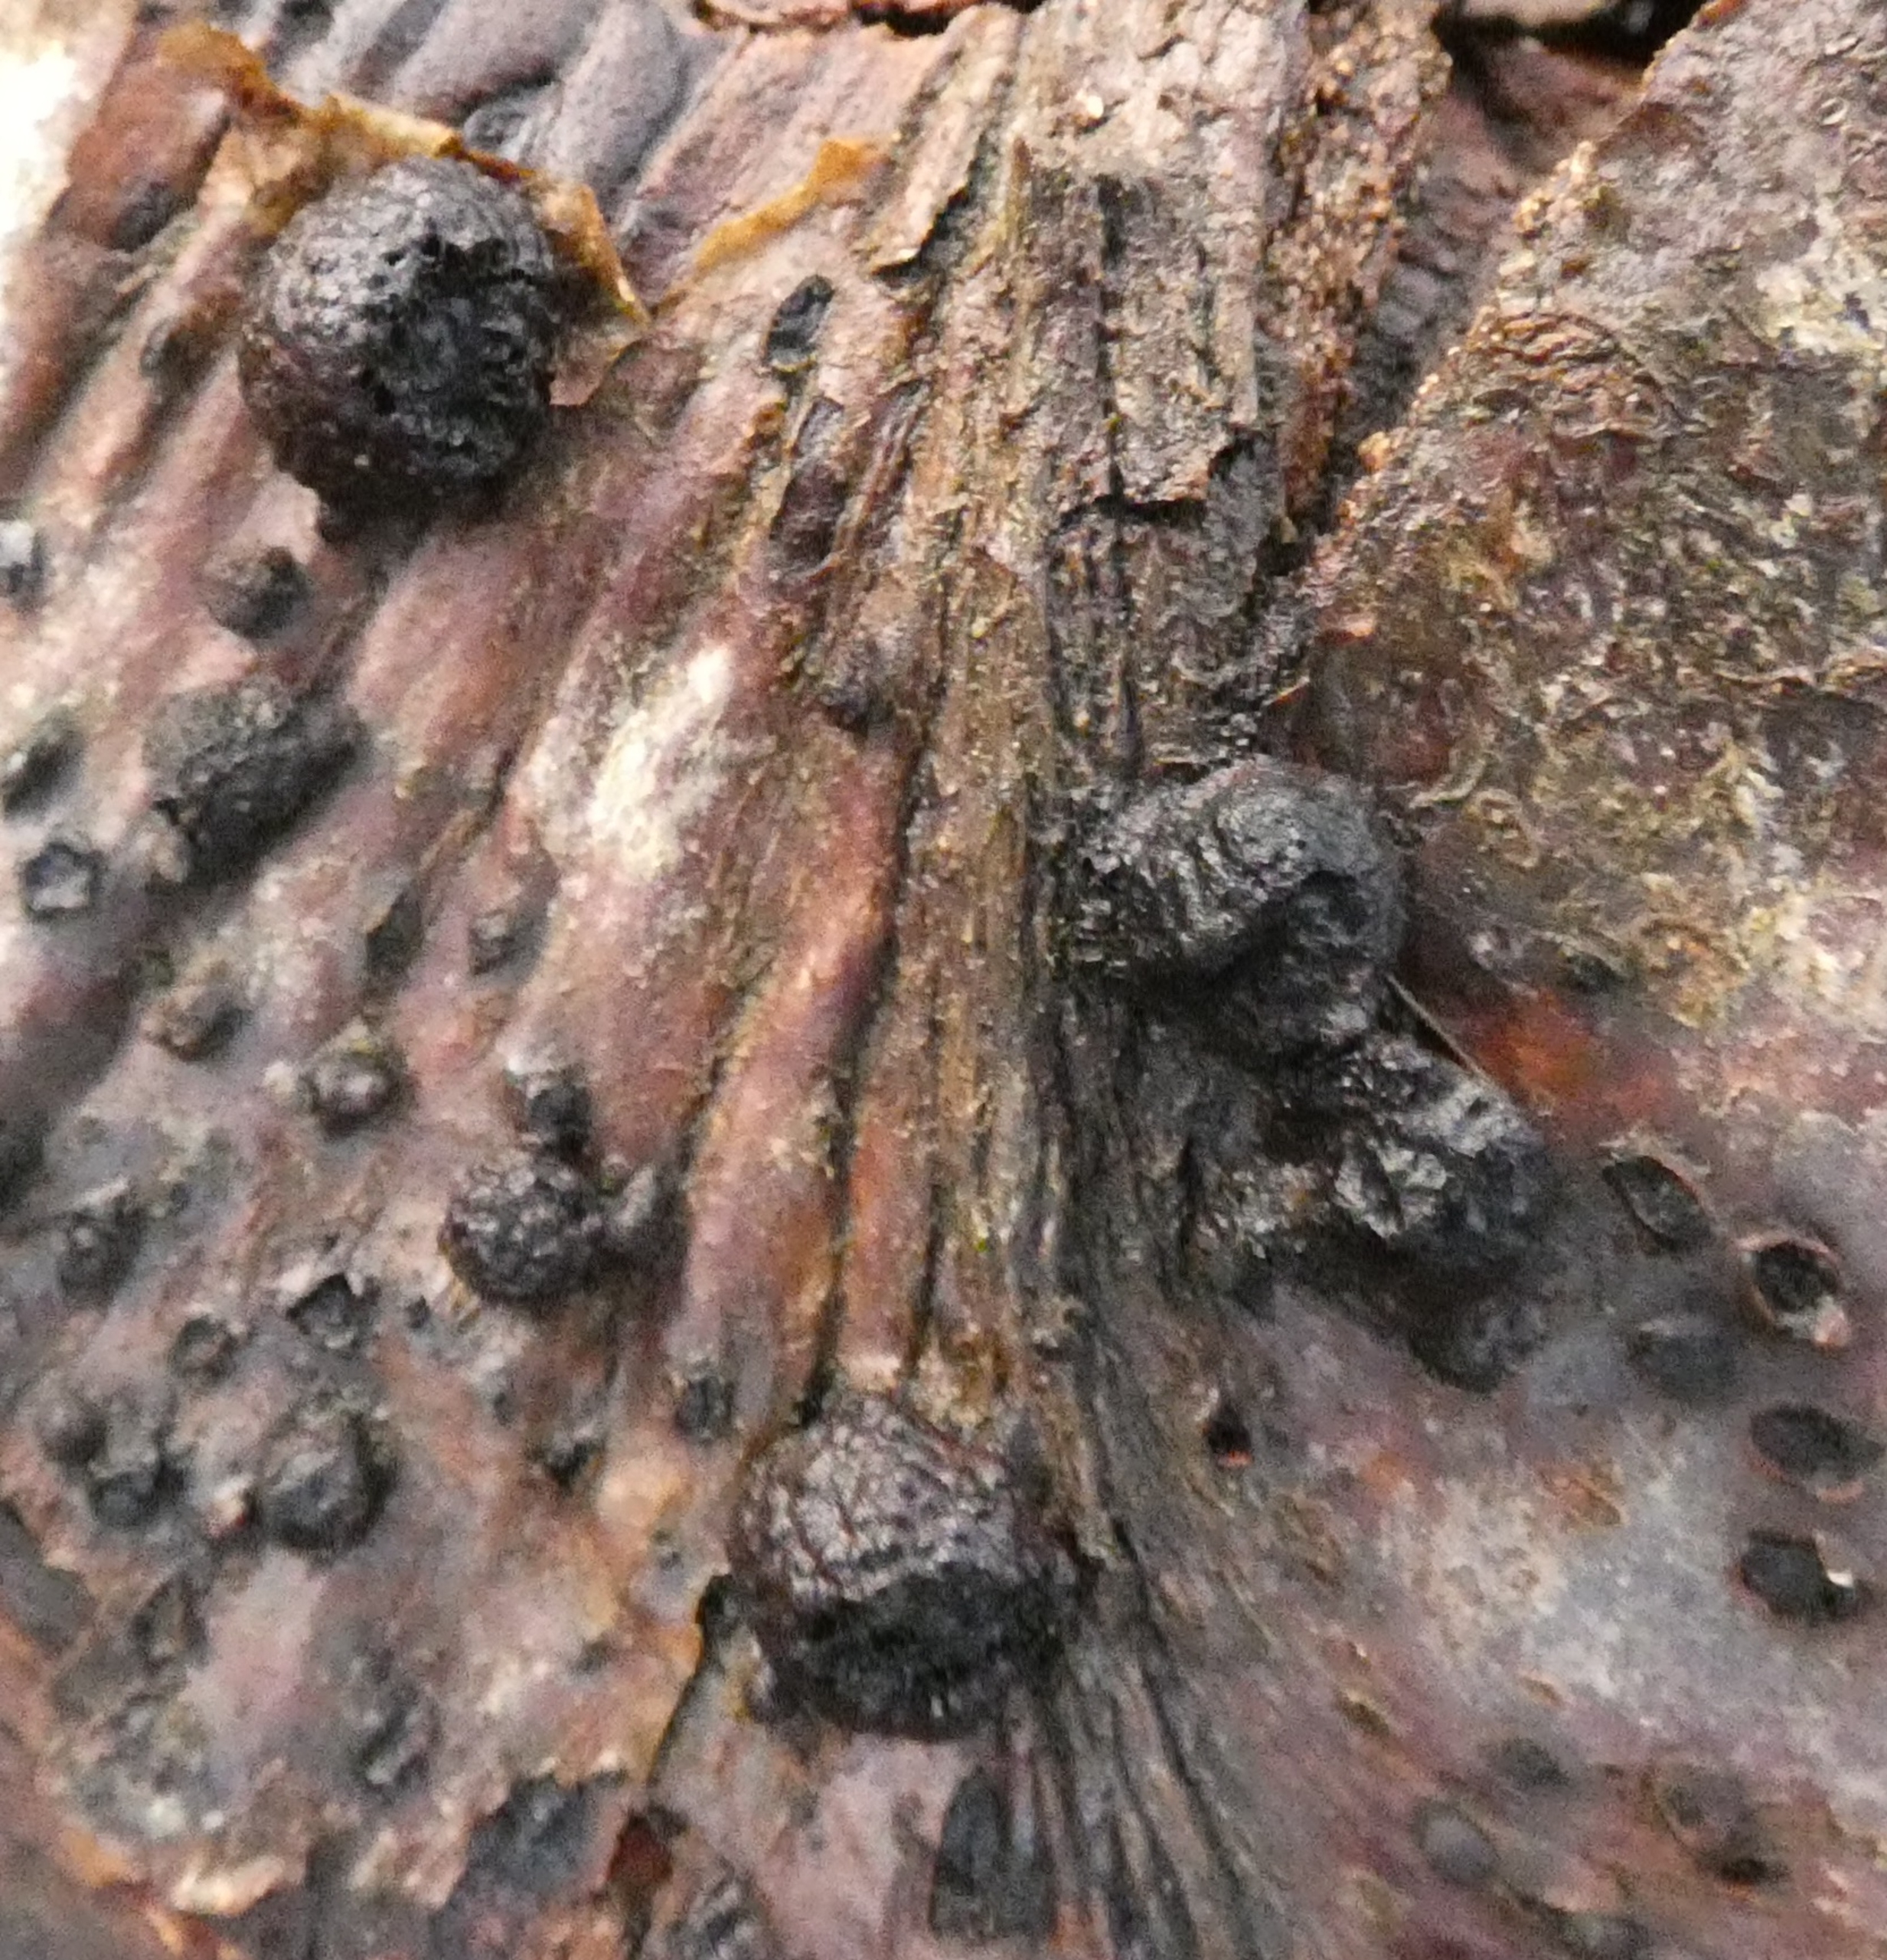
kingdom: Fungi
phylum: Ascomycota
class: Sordariomycetes
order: Xylariales
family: Hypoxylaceae
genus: Hypoxylon
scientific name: Hypoxylon fragiforme
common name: Kuljordbær
